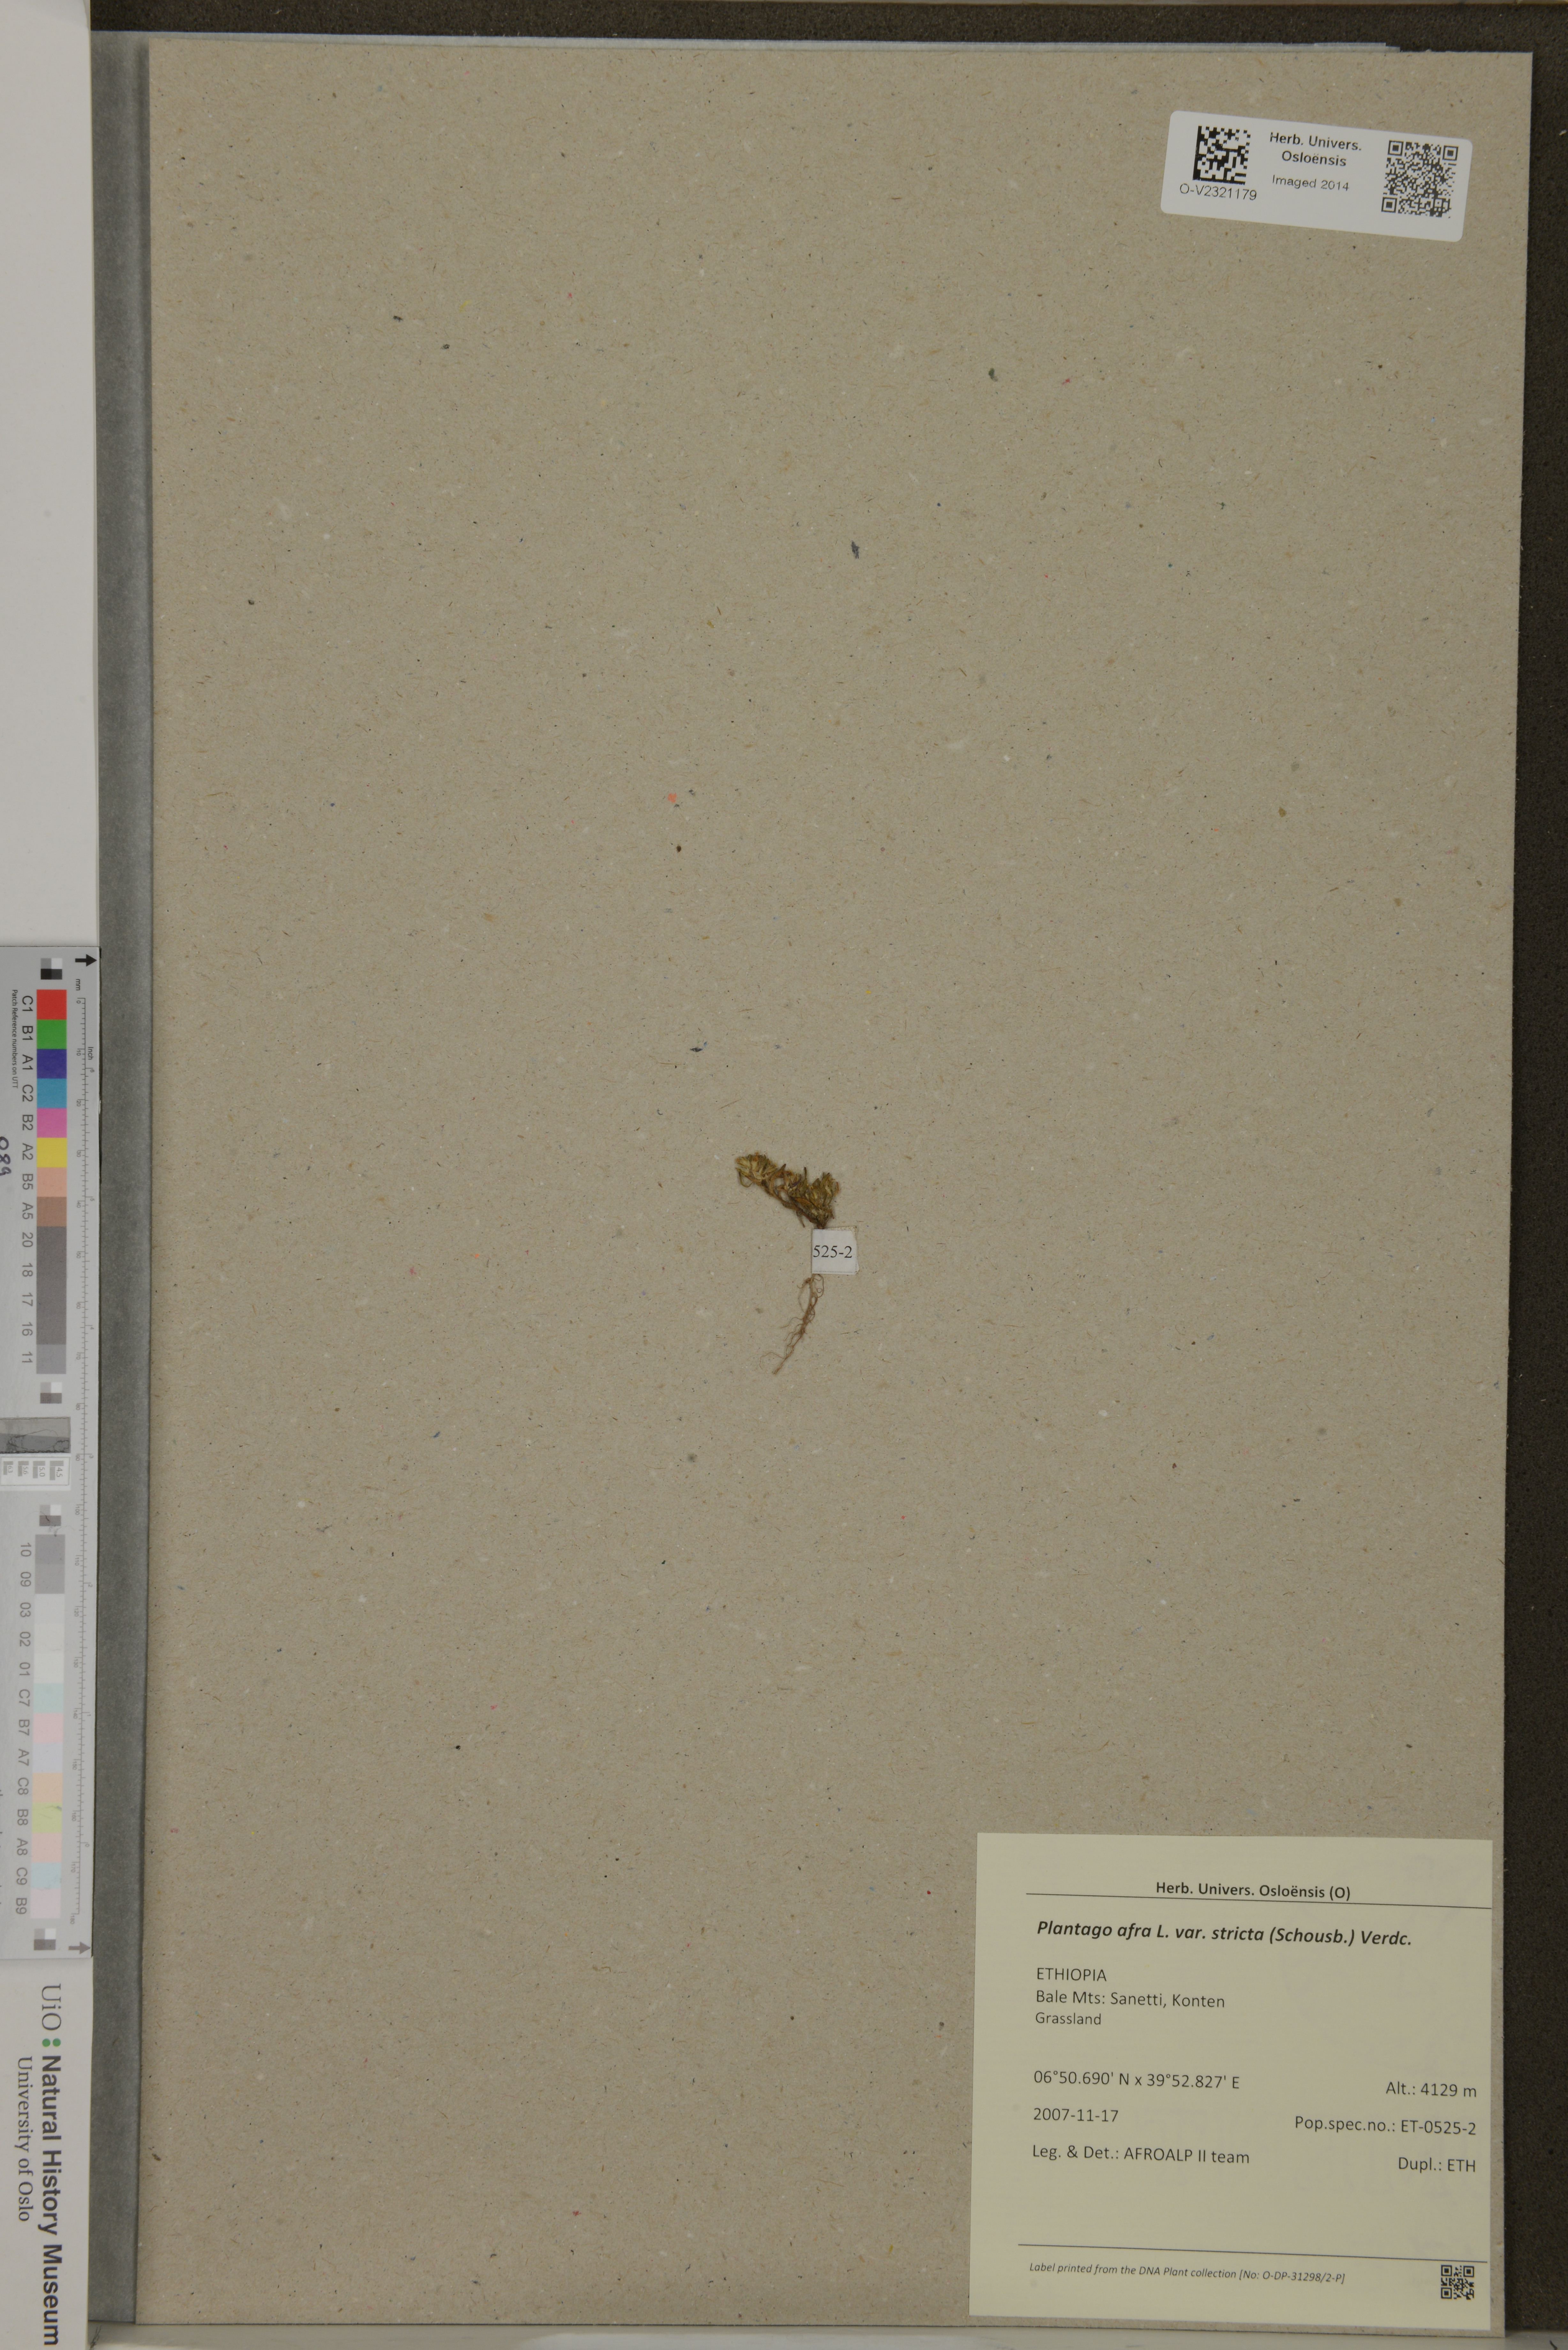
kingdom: Plantae
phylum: Tracheophyta
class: Magnoliopsida
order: Lamiales
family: Plantaginaceae
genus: Plantago
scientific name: Plantago afra
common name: Glandular plantain
